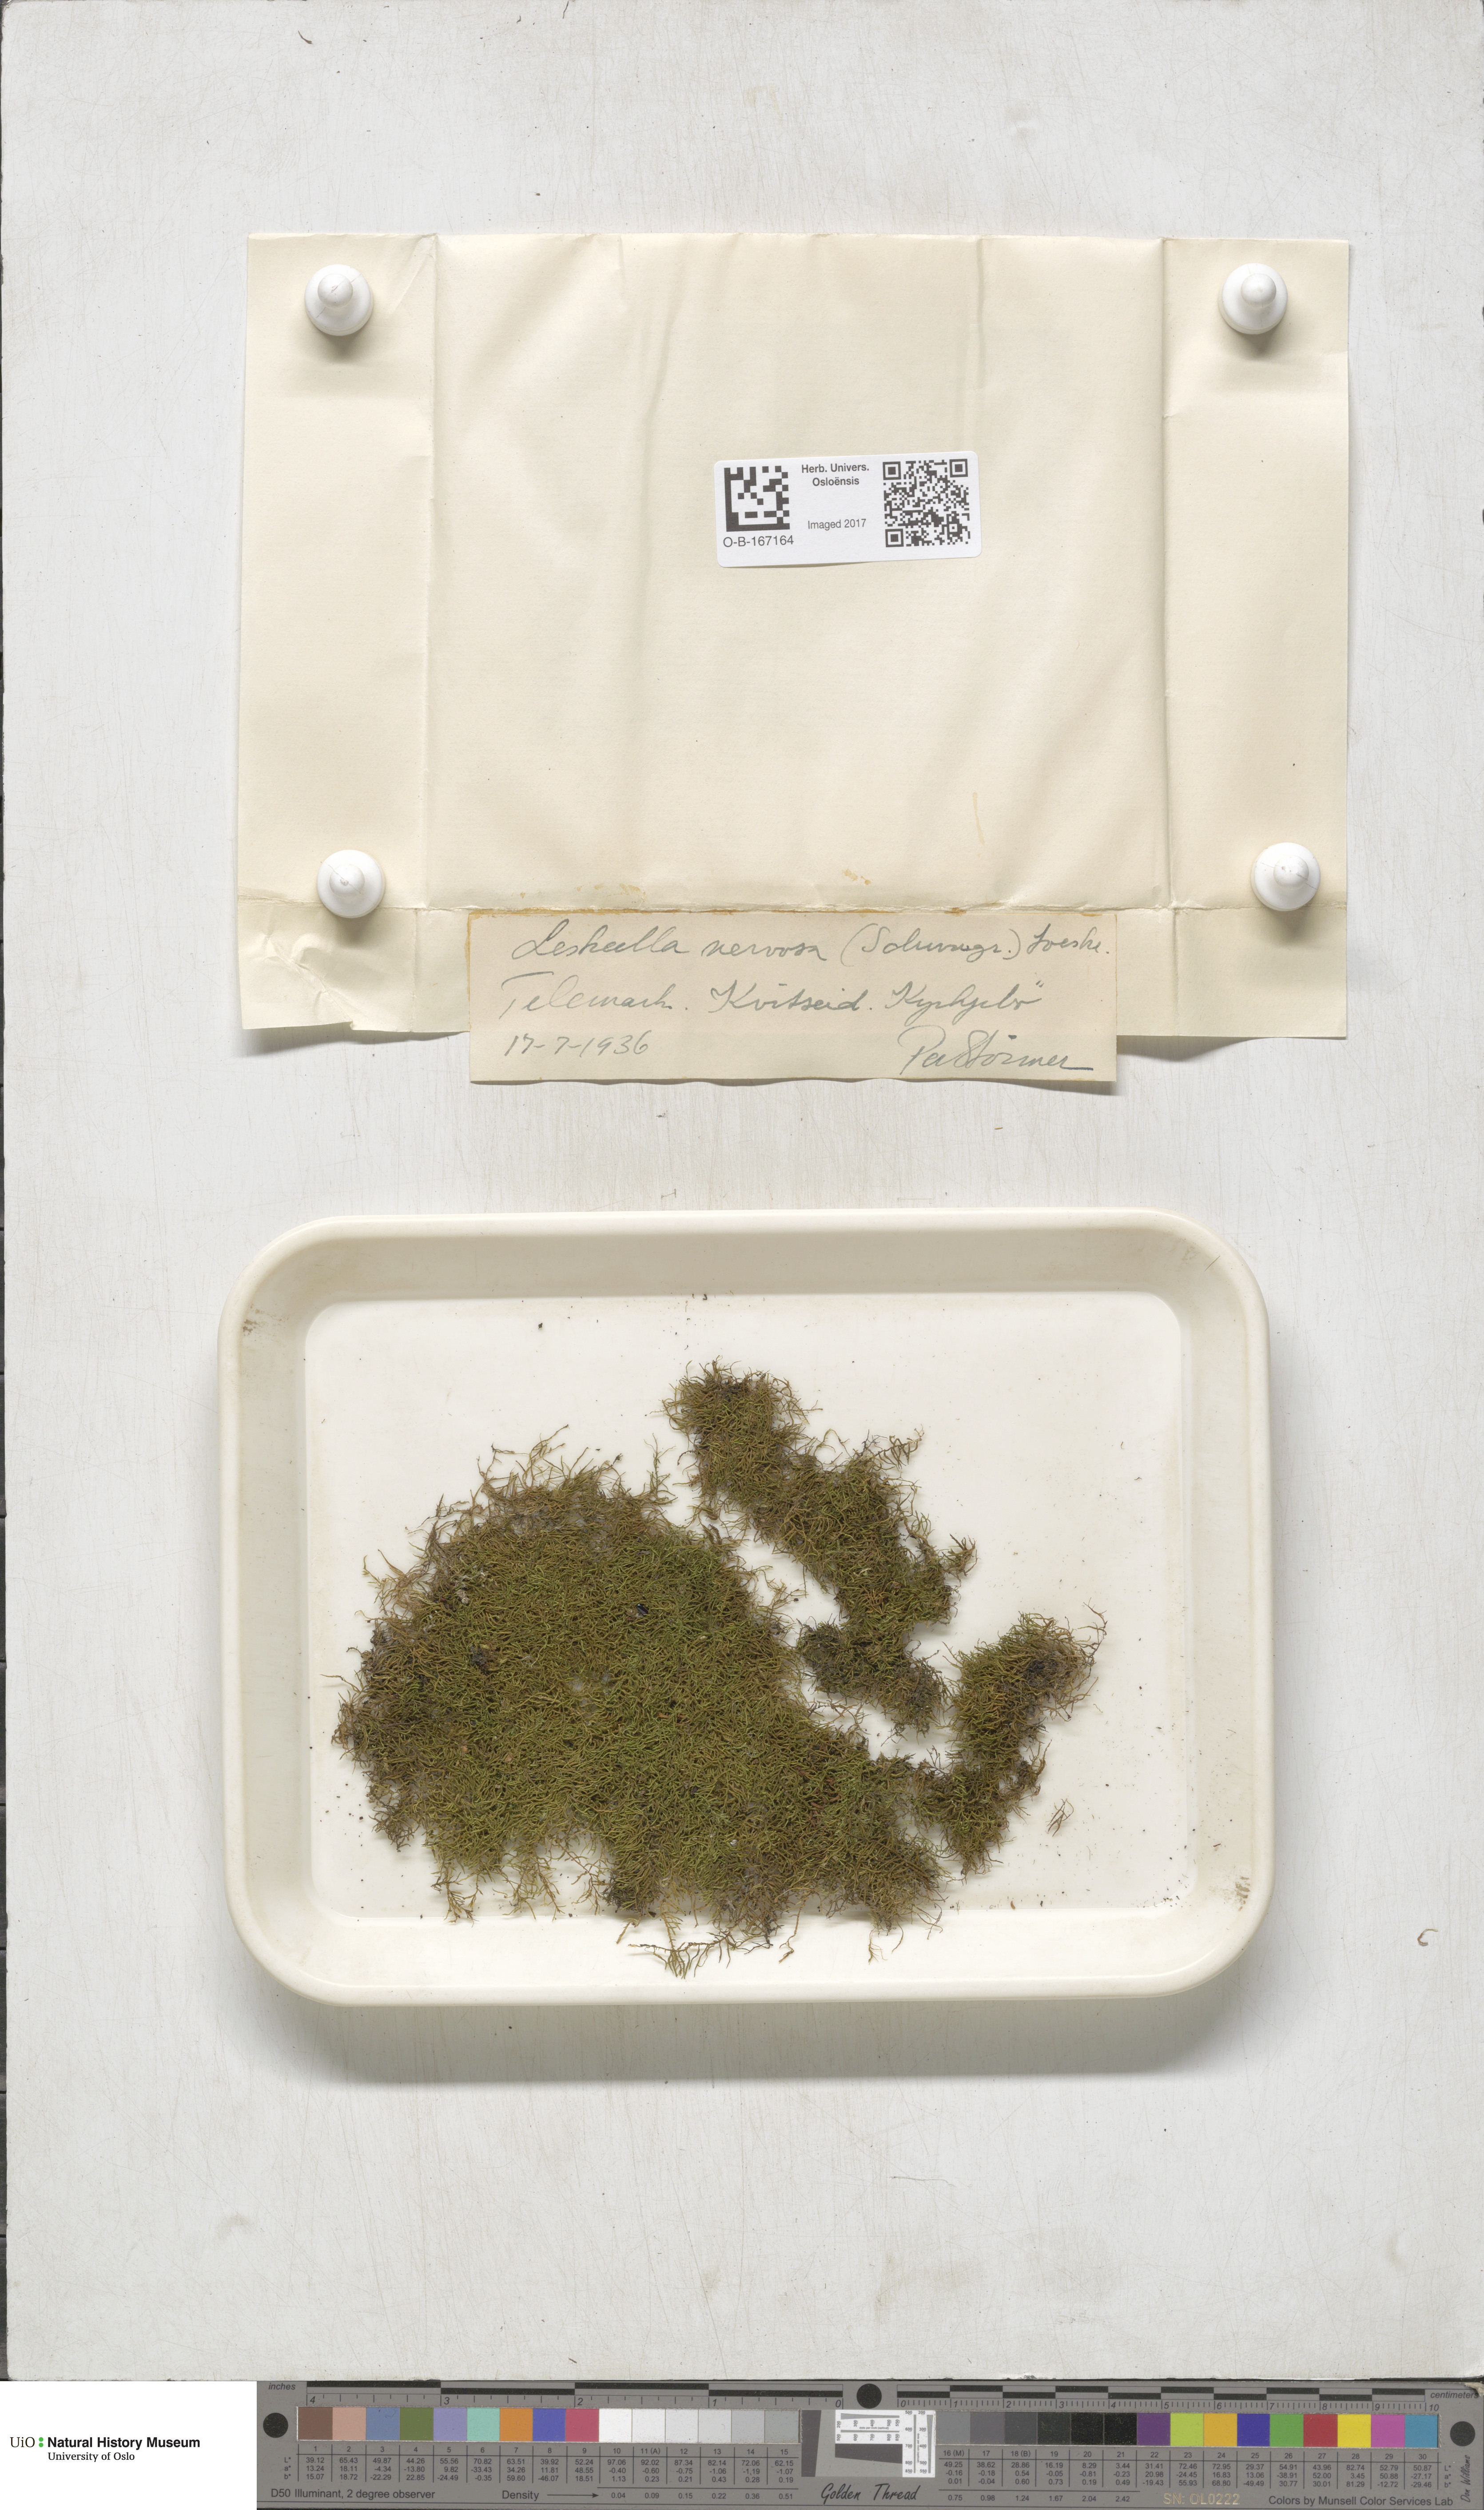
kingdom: Plantae
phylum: Bryophyta
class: Bryopsida
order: Hypnales
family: Pseudoleskeellaceae
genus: Pseudoleskeella
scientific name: Pseudoleskeella nervosa
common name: Nerved leske's moss
